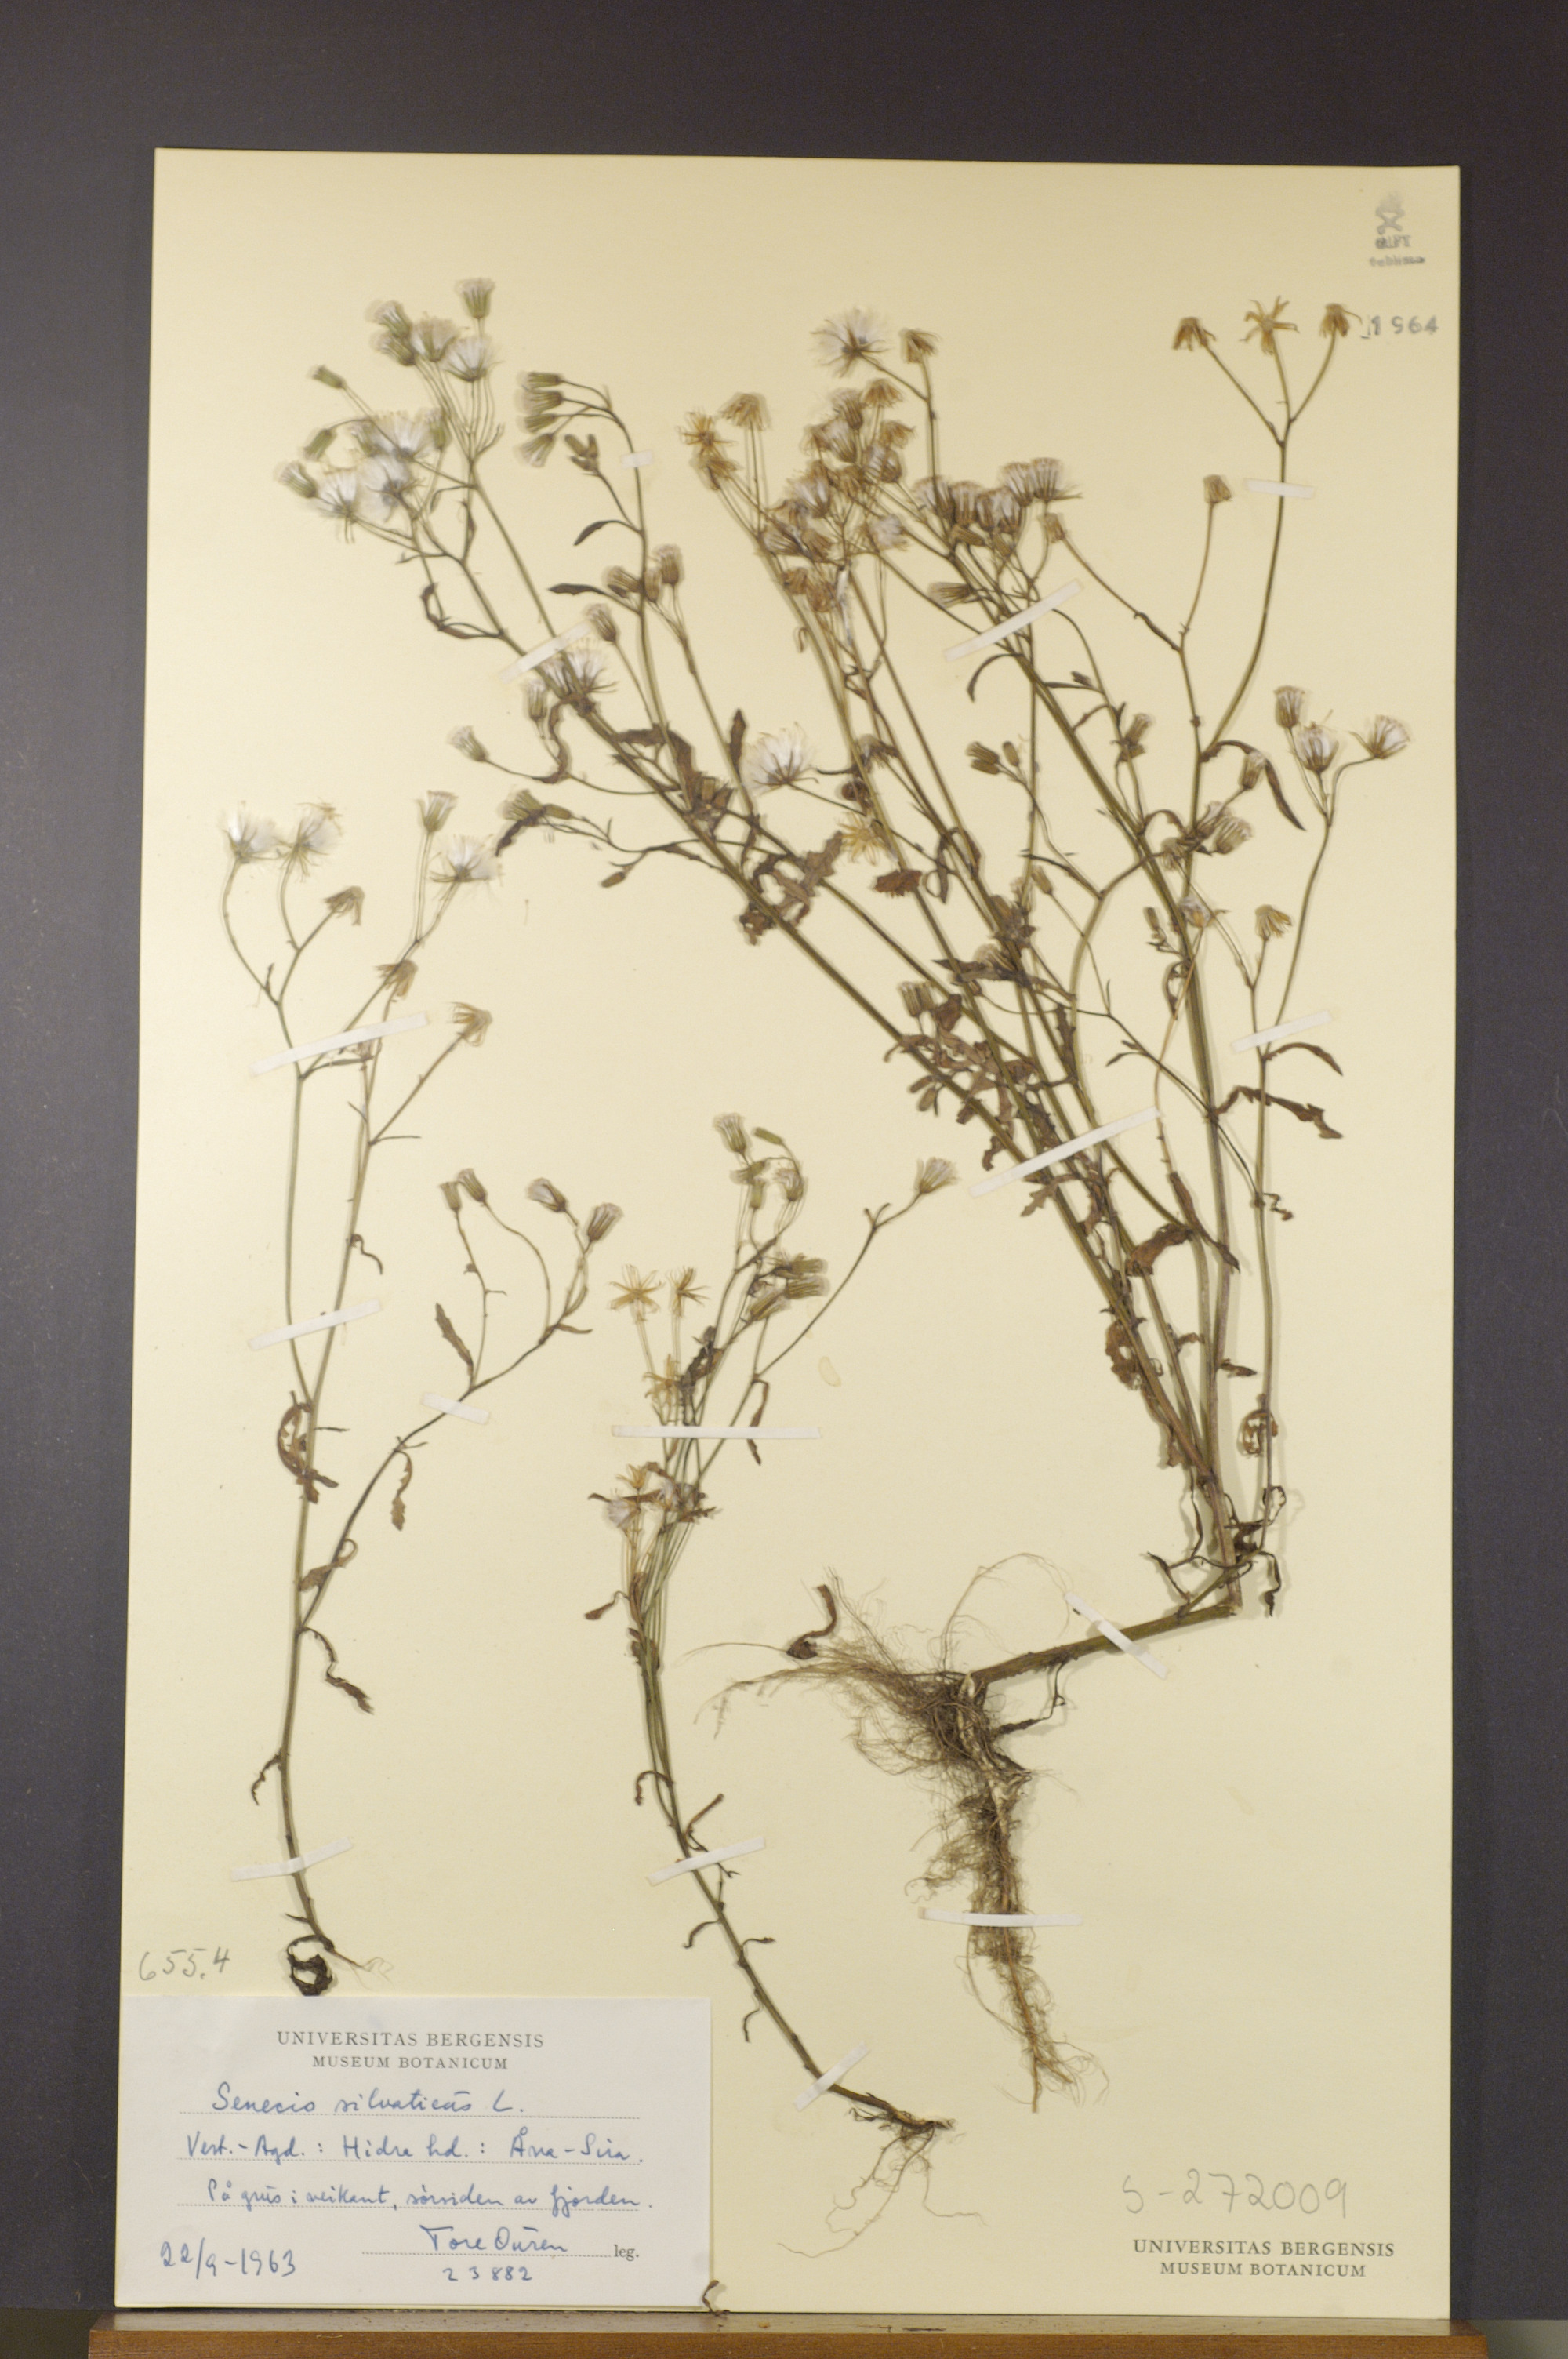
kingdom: Plantae
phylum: Tracheophyta
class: Magnoliopsida
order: Asterales
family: Asteraceae
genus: Senecio
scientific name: Senecio sylvaticus
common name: Woodland ragwort
